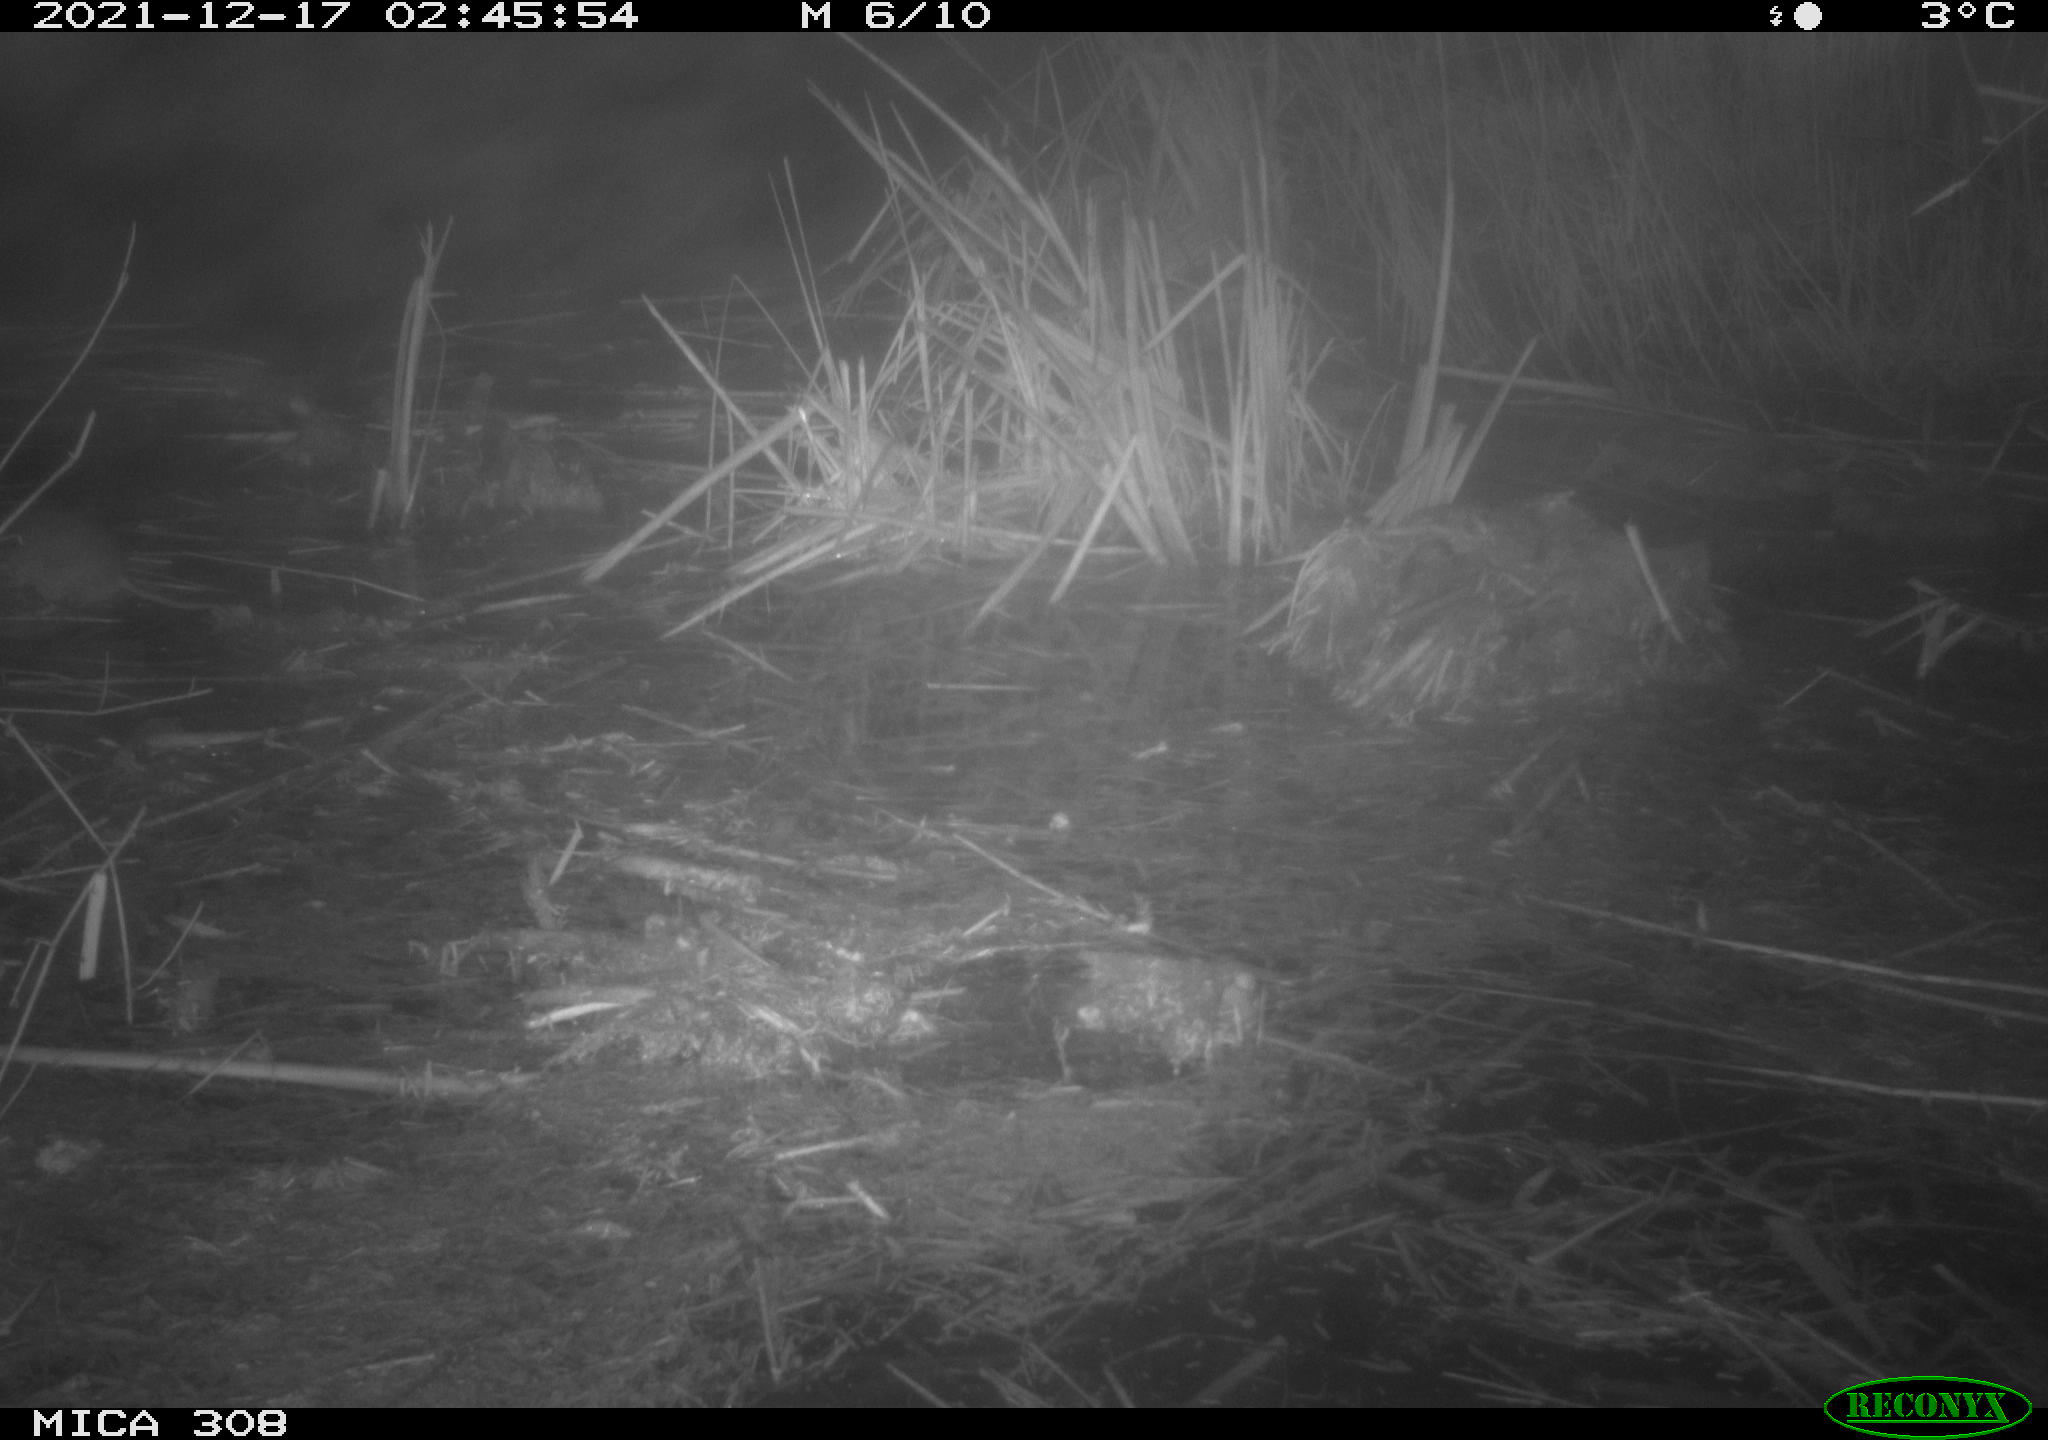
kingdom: Animalia
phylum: Chordata
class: Mammalia
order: Rodentia
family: Muridae
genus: Rattus
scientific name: Rattus norvegicus
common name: Brown rat
